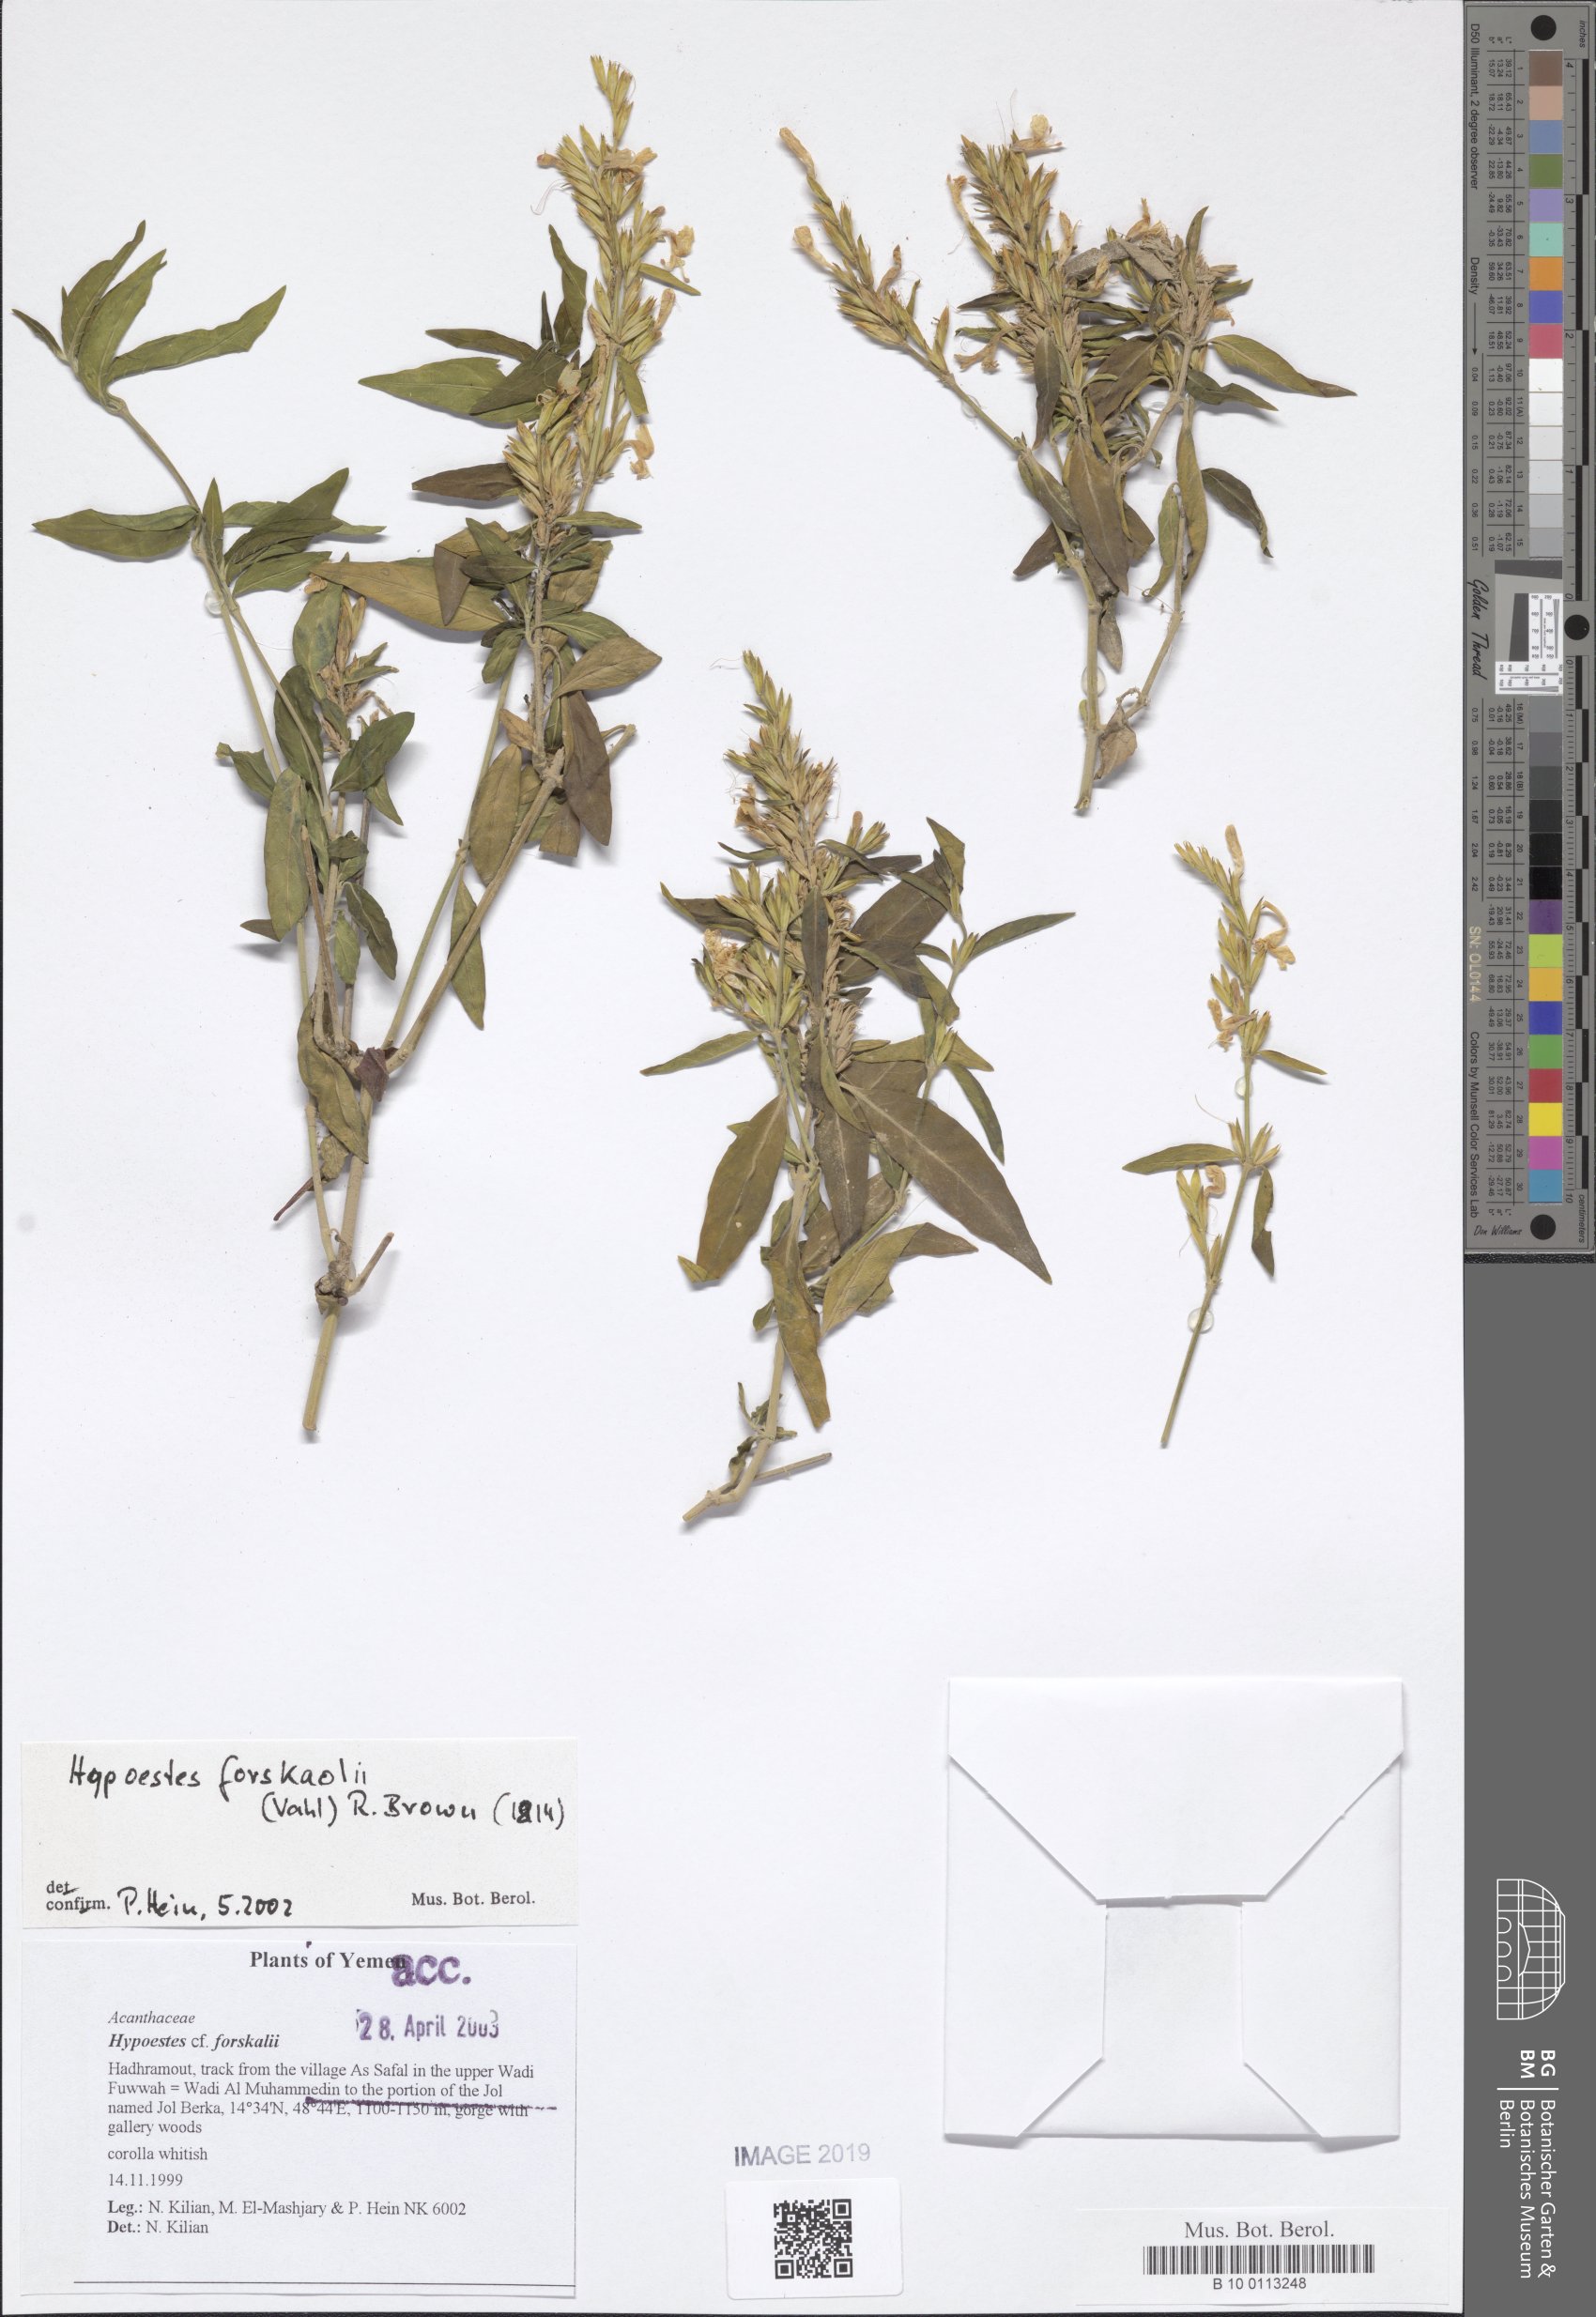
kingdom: Plantae
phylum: Tracheophyta
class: Magnoliopsida
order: Lamiales
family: Acanthaceae
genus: Hypoestes
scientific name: Hypoestes forskaolii
